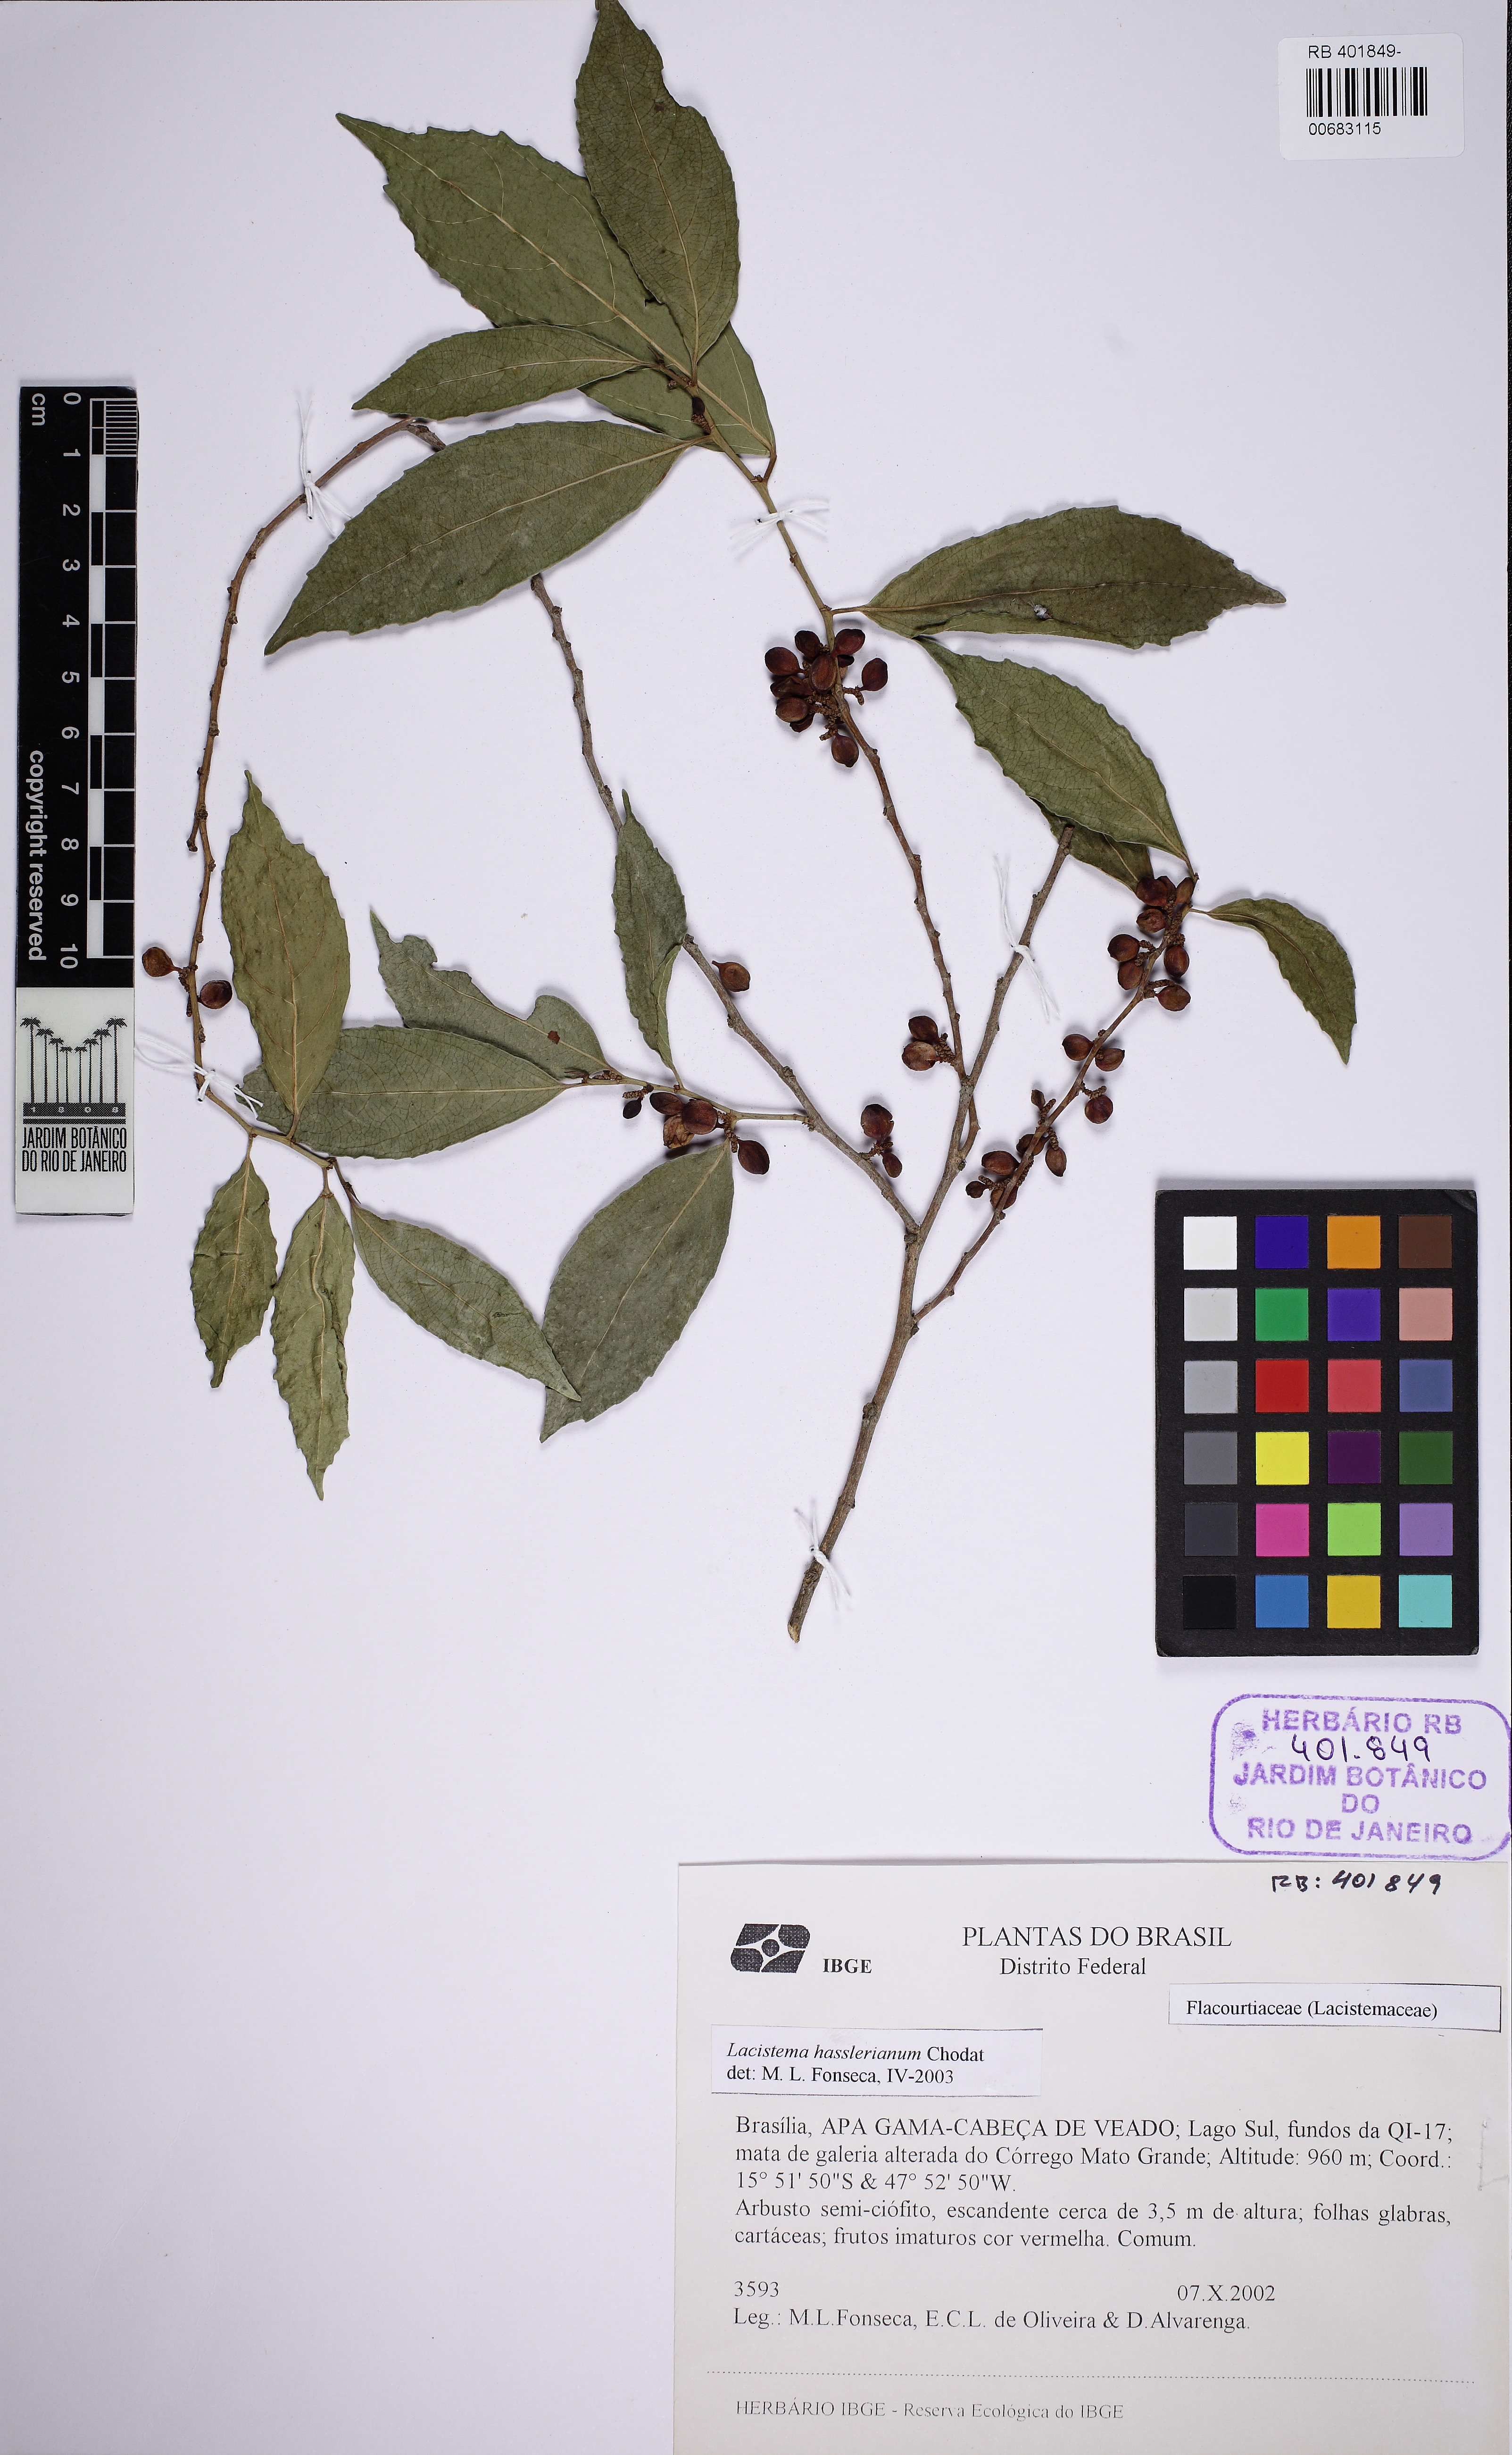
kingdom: Plantae
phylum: Tracheophyta
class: Magnoliopsida
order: Malpighiales
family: Lacistemataceae
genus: Lacistema
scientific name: Lacistema hasslerianum
